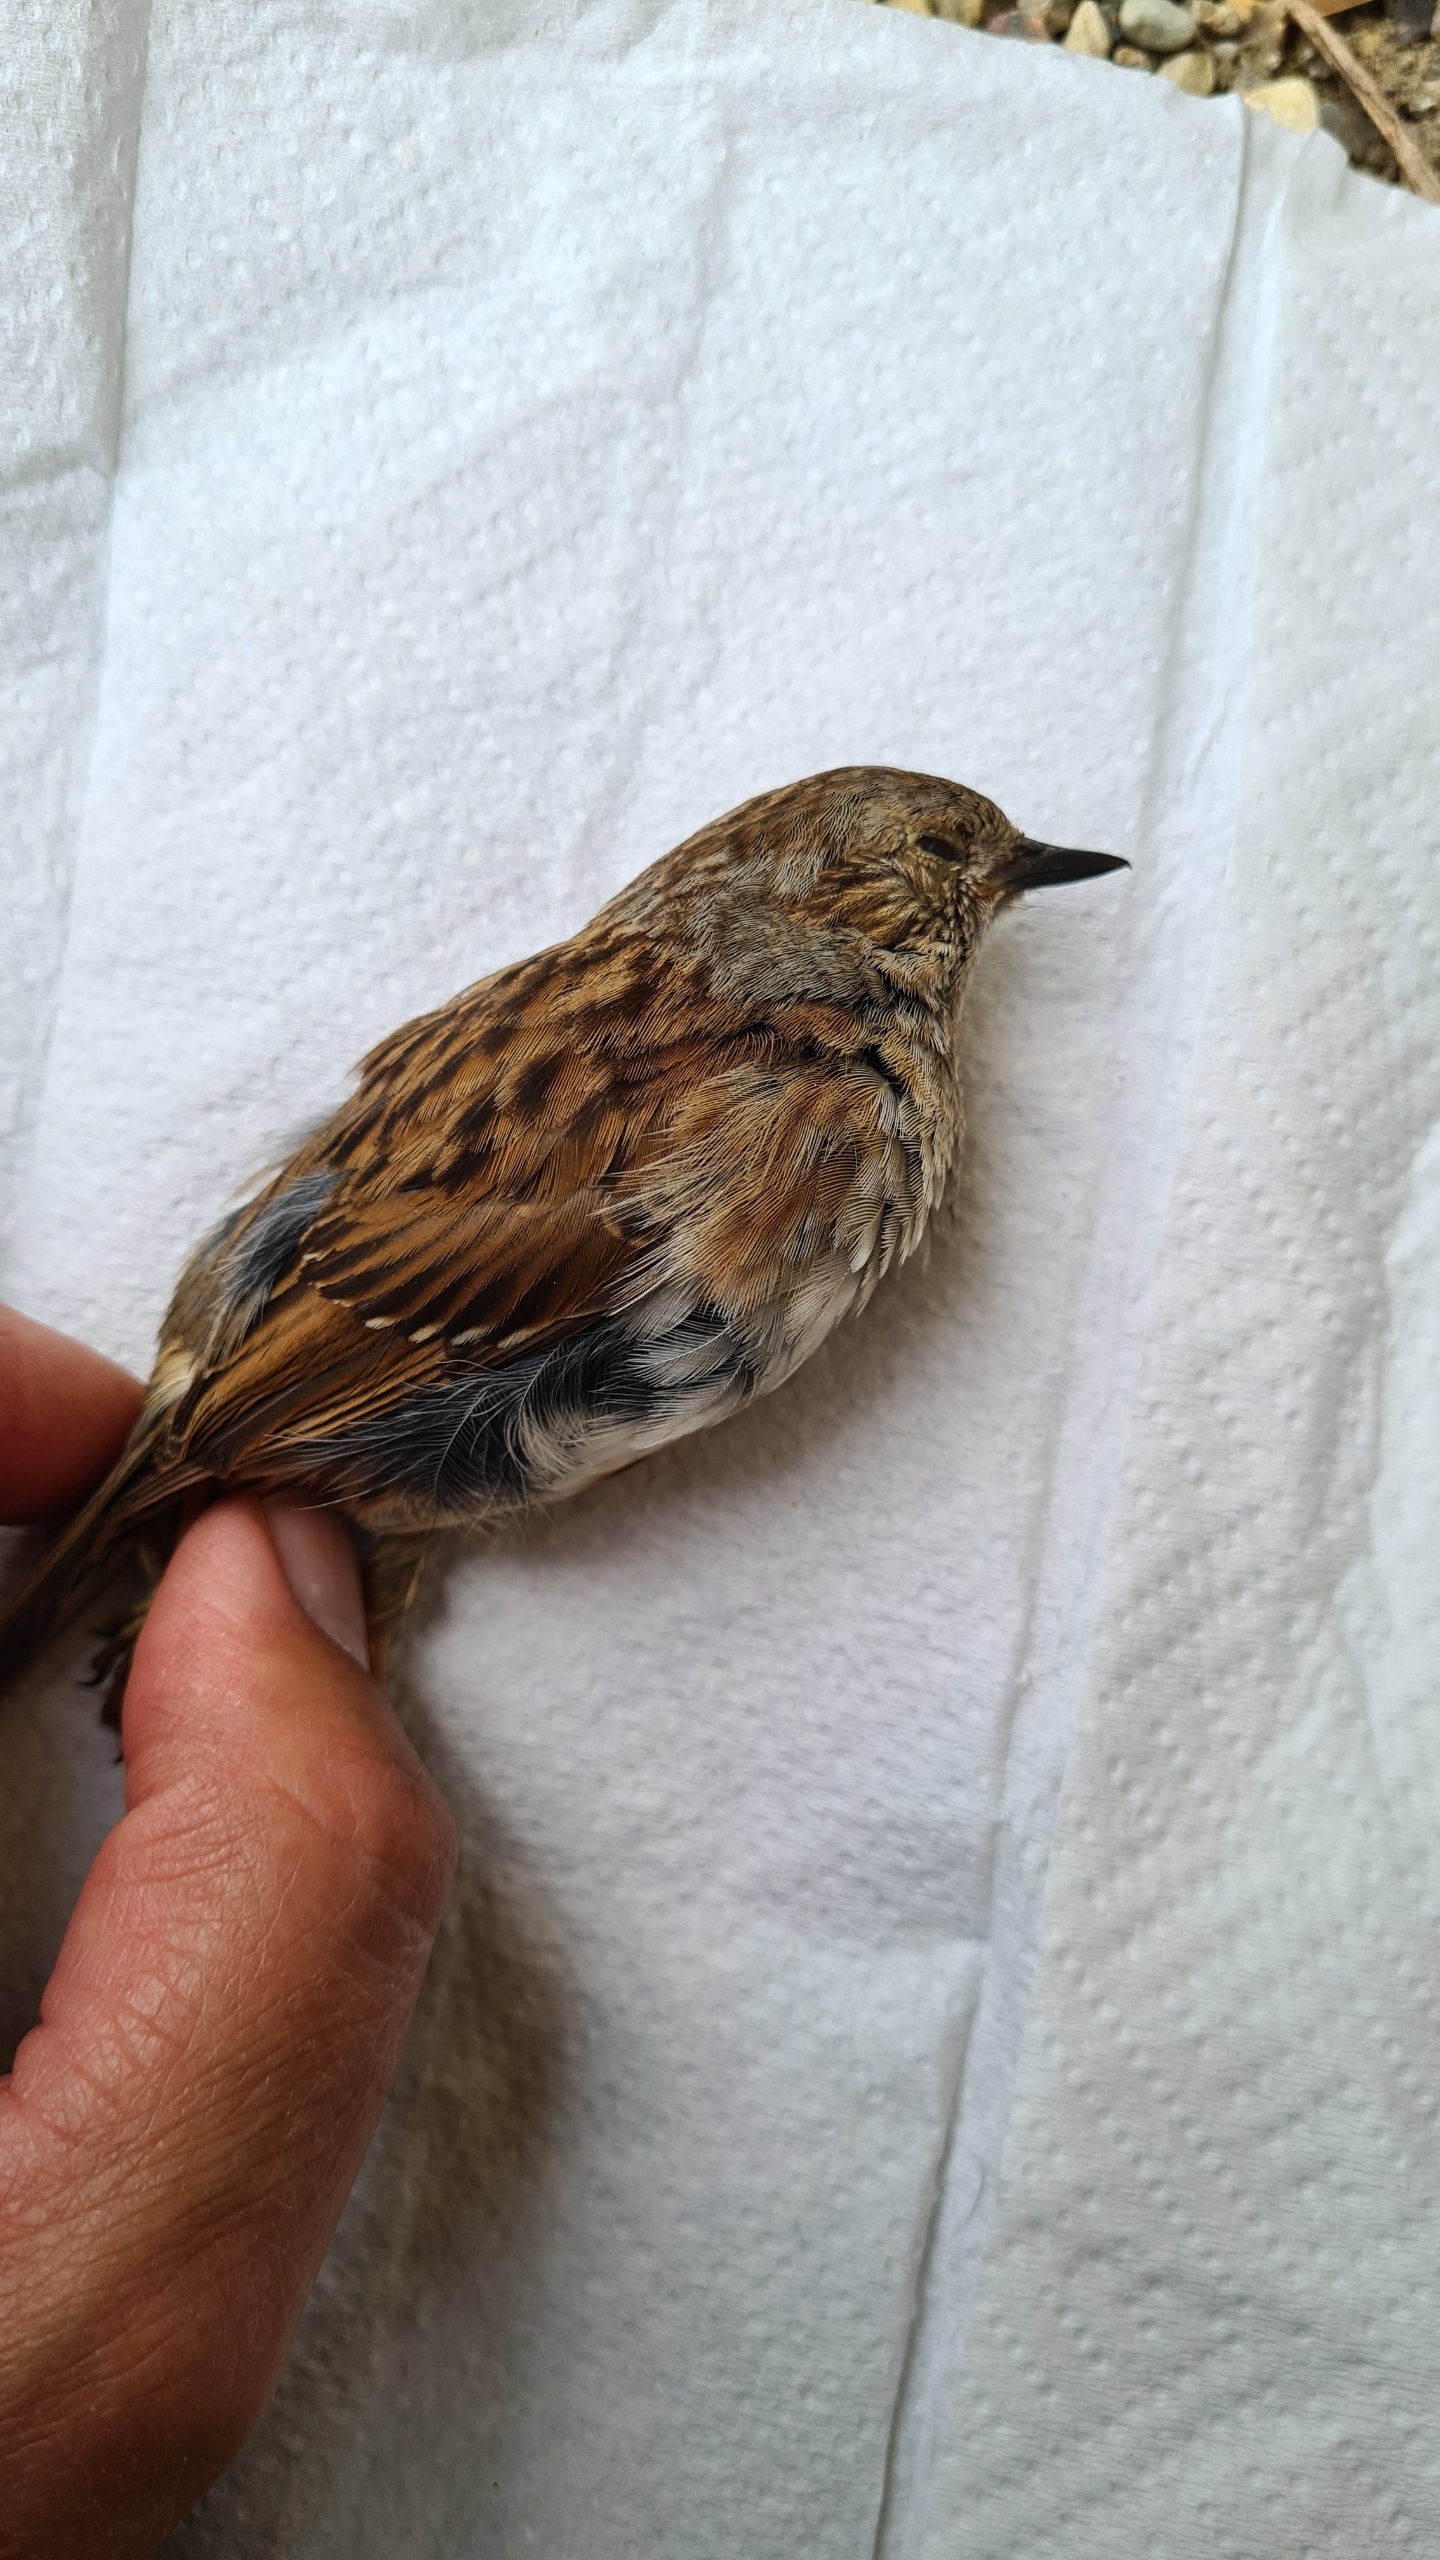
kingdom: Animalia
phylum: Chordata
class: Aves
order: Passeriformes
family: Prunellidae
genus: Prunella
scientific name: Prunella modularis
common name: Jernspurv
